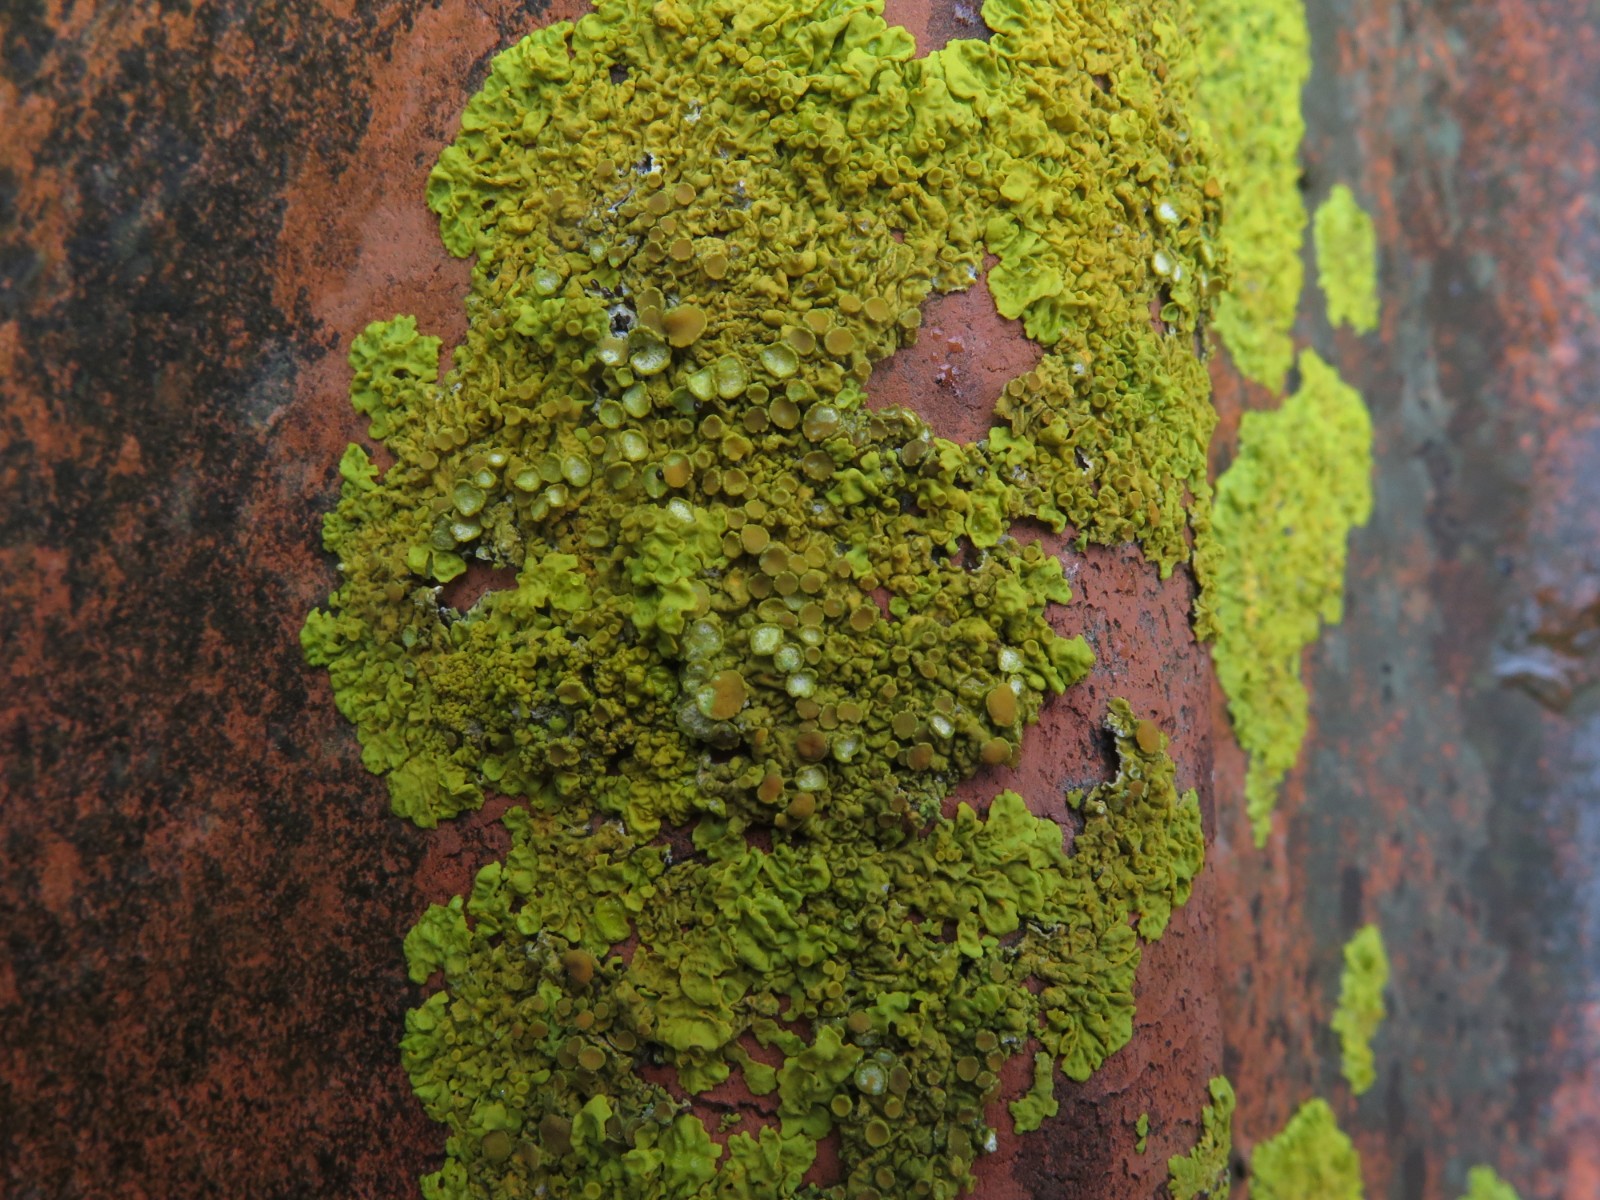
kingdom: Fungi
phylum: Ascomycota
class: Lecanoromycetes
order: Teloschistales
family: Teloschistaceae
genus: Xanthoria
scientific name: Xanthoria parietina
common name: almindelig væggelav
